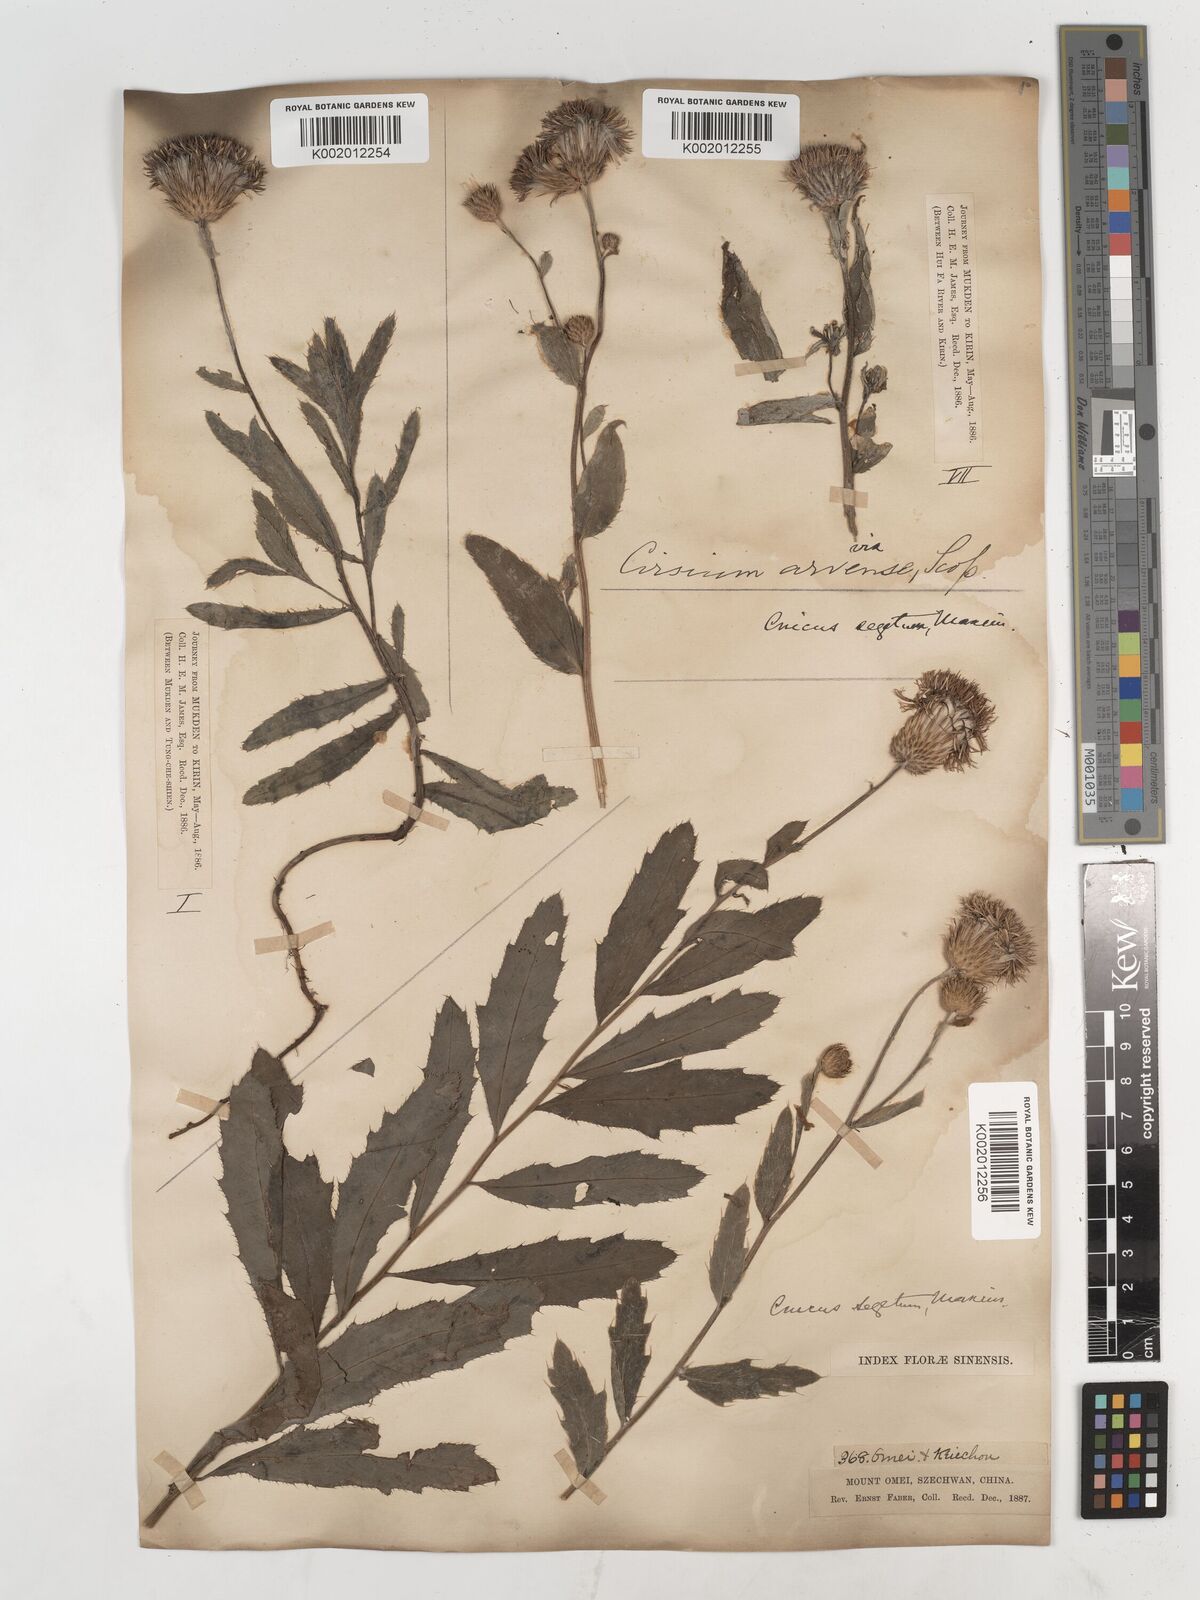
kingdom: Plantae
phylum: Tracheophyta
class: Magnoliopsida
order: Asterales
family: Asteraceae
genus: Cirsium
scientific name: Cirsium arvense
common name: Creeping thistle
